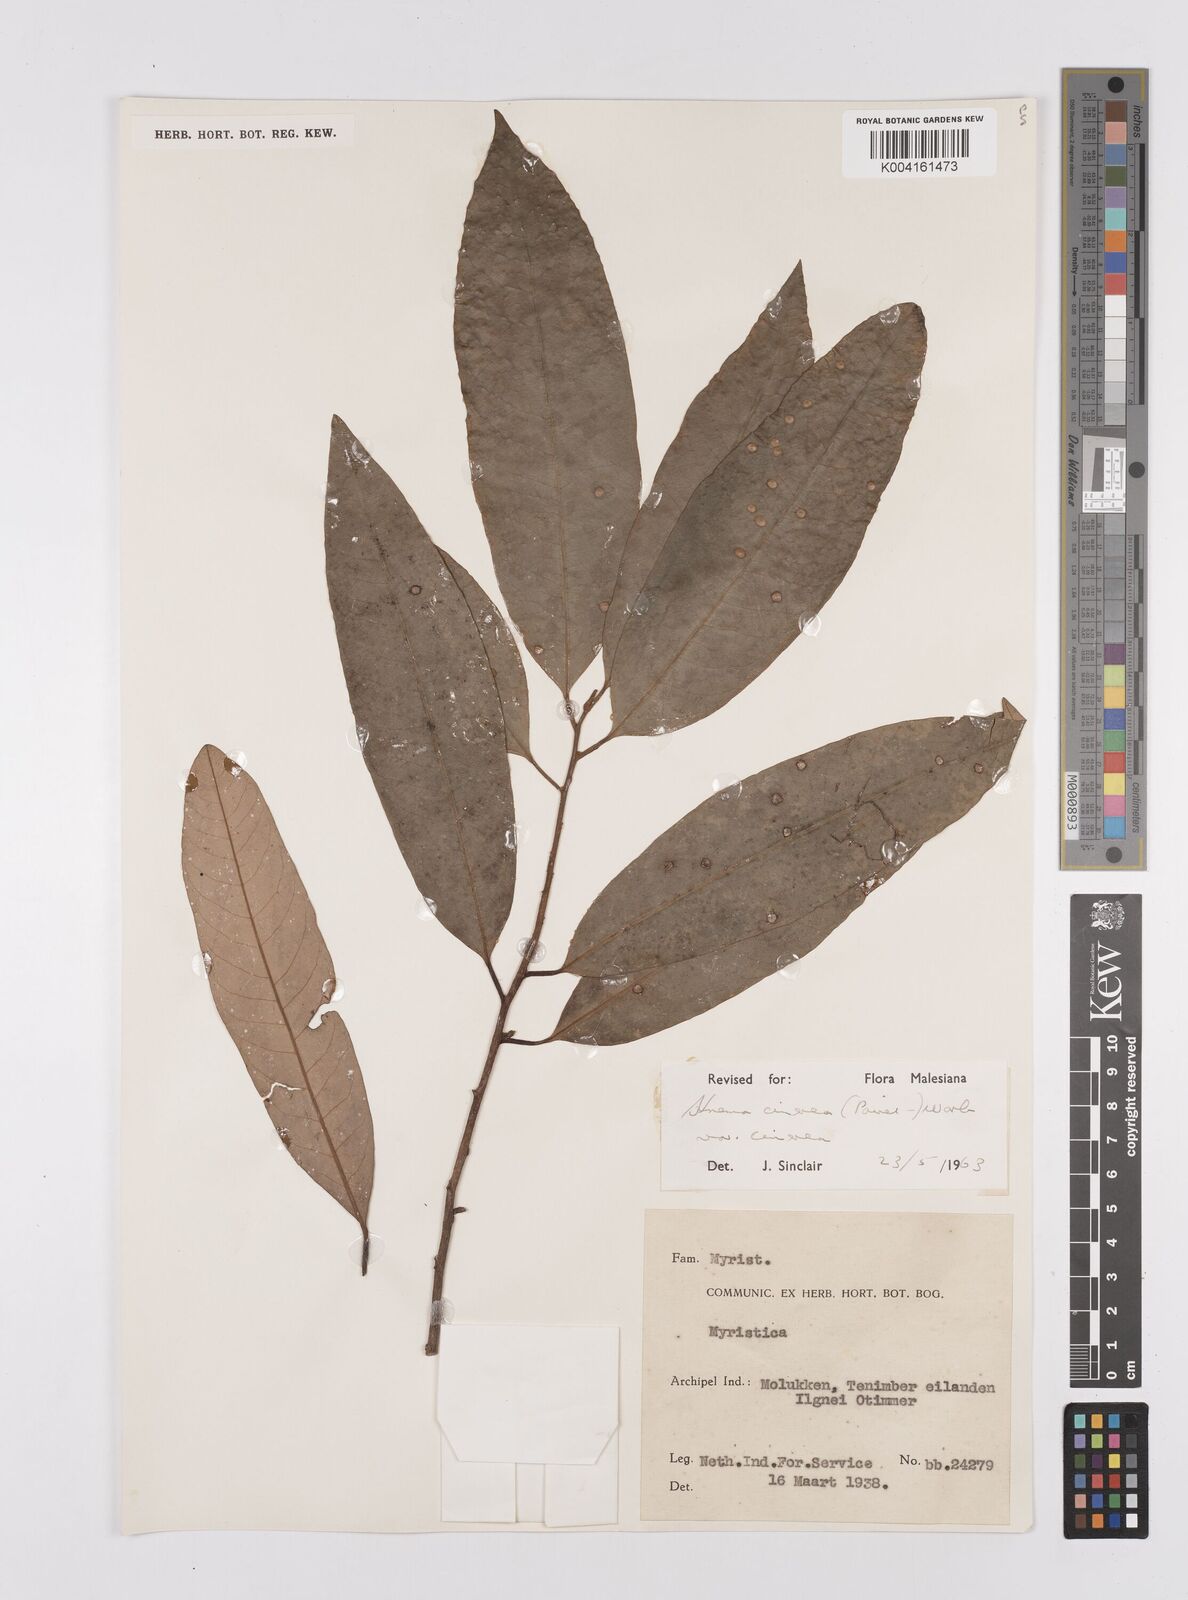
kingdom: Plantae
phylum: Tracheophyta
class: Magnoliopsida
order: Magnoliales
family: Myristicaceae
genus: Knema
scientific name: Knema cinerea
